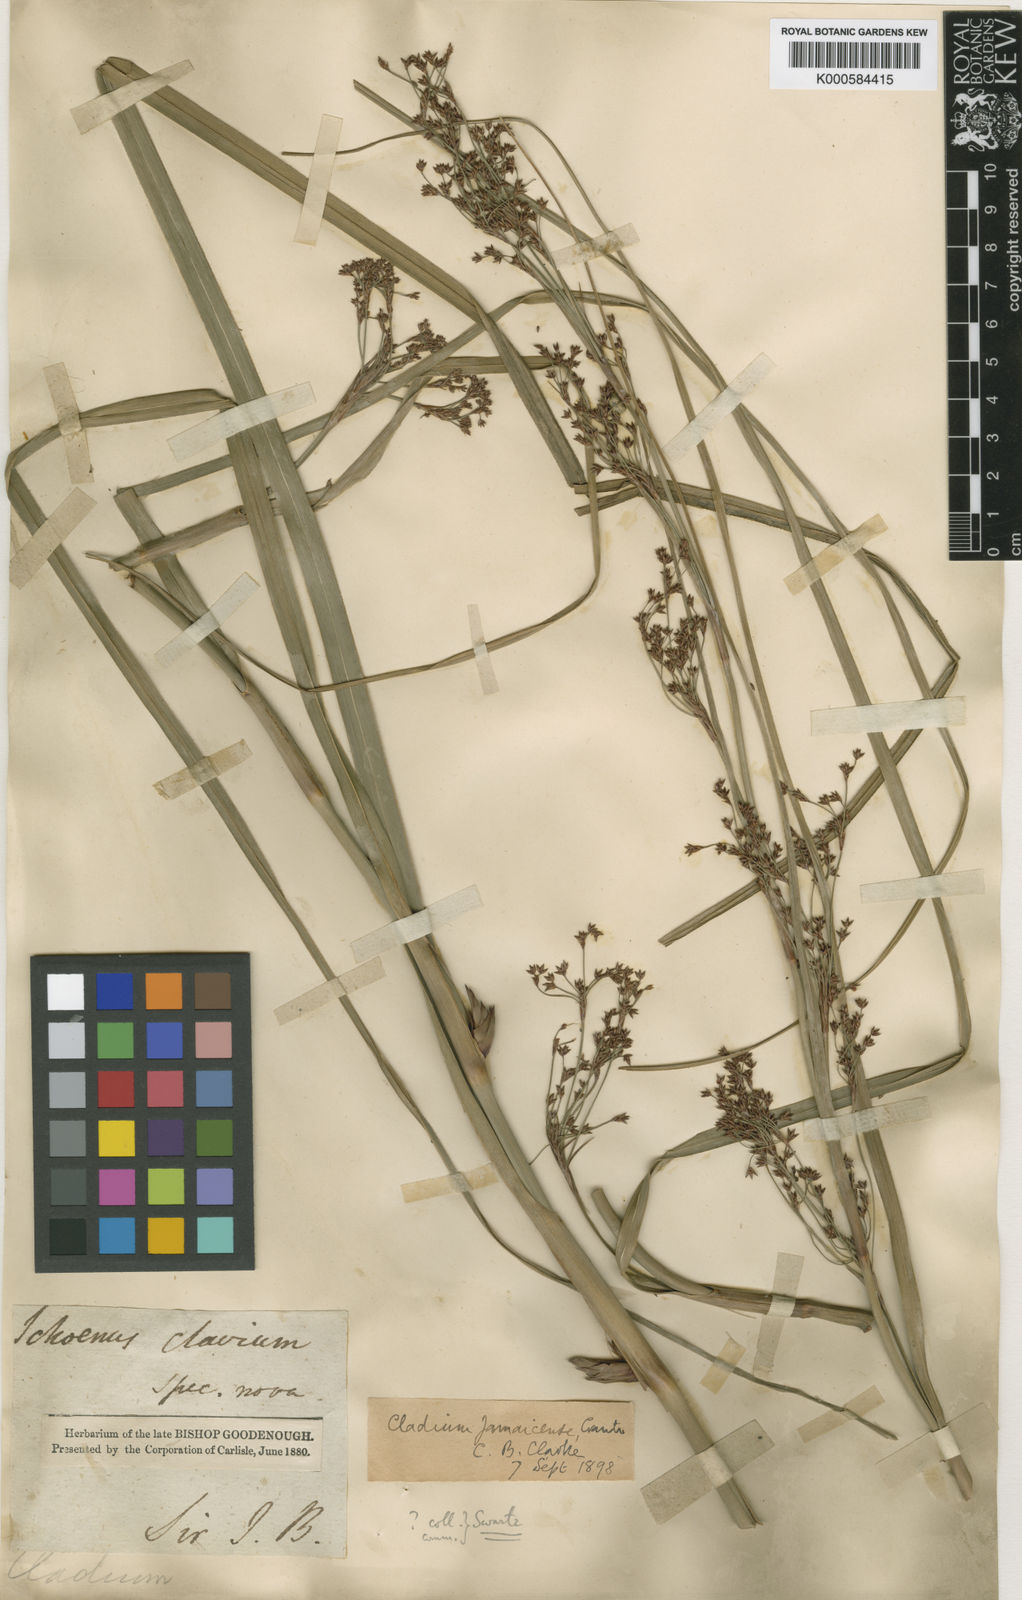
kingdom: Plantae
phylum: Tracheophyta
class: Liliopsida
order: Poales
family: Cyperaceae
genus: Cladium
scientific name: Cladium mariscus
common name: Great fen-sedge
